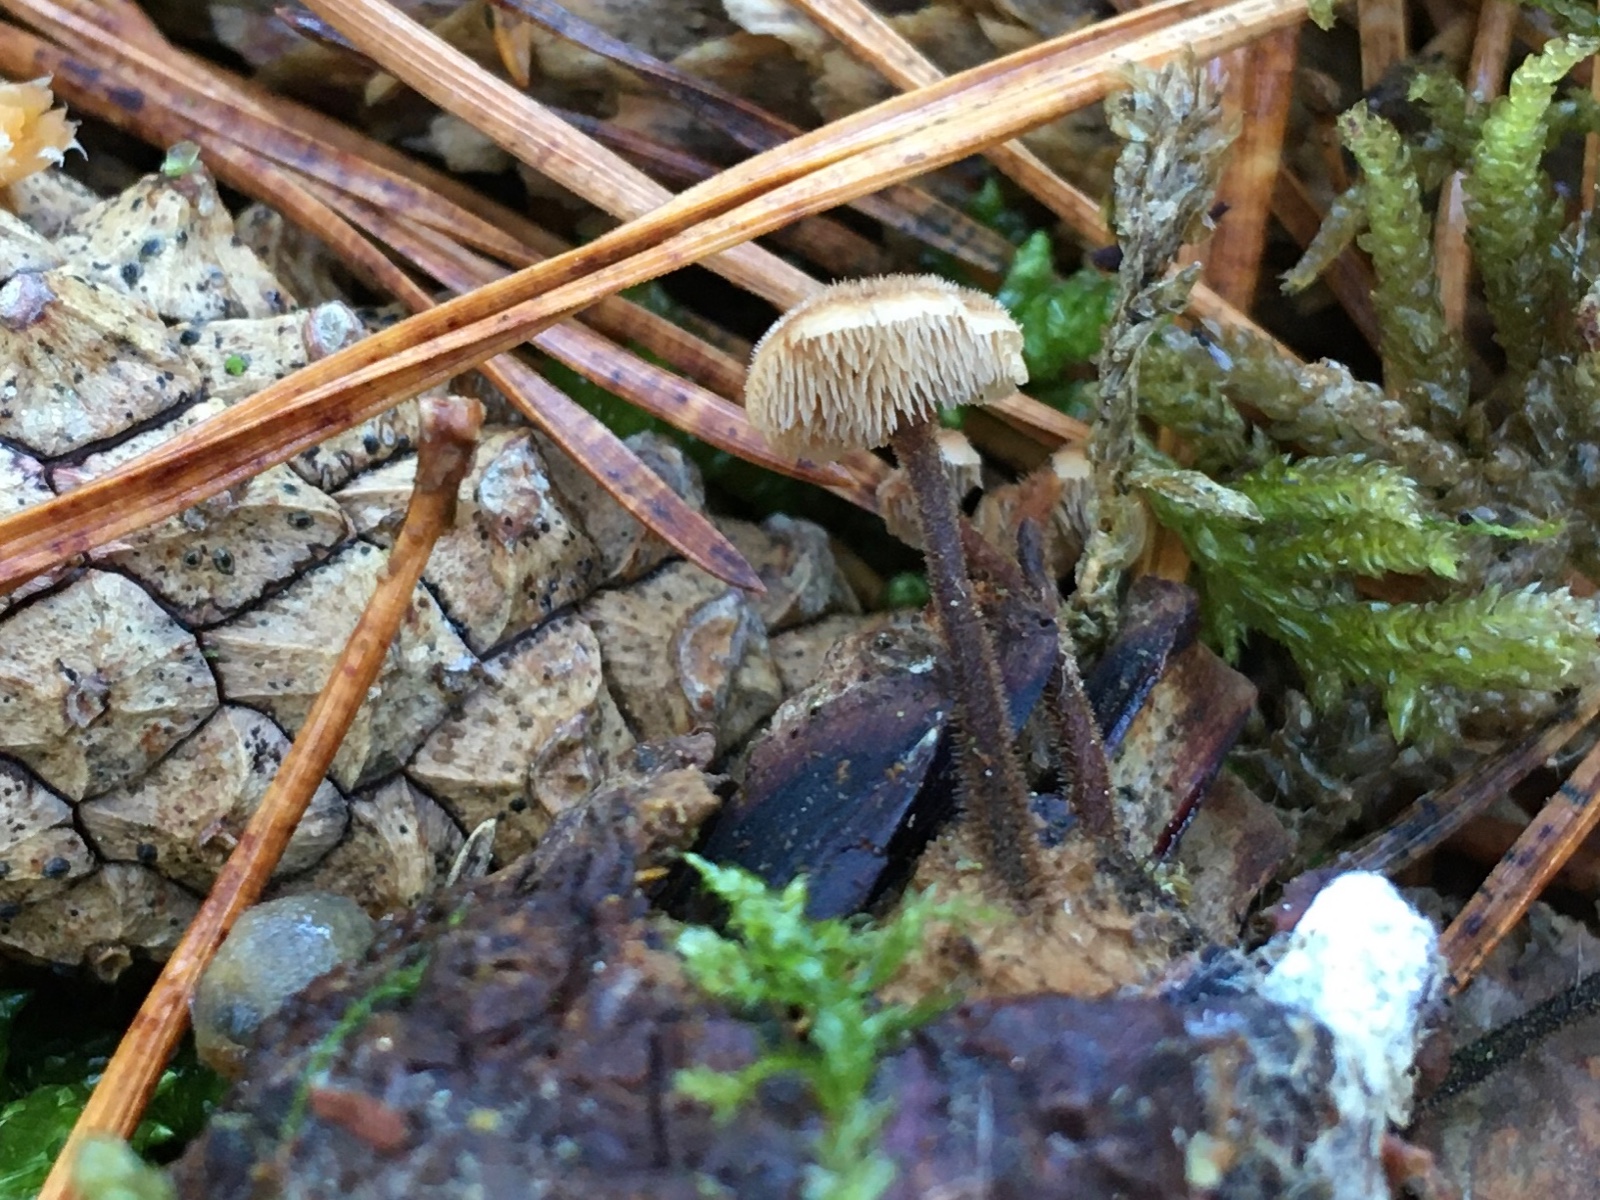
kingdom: Fungi
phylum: Basidiomycota
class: Agaricomycetes
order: Russulales
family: Auriscalpiaceae
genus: Auriscalpium
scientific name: Auriscalpium vulgare
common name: koglepigsvamp
